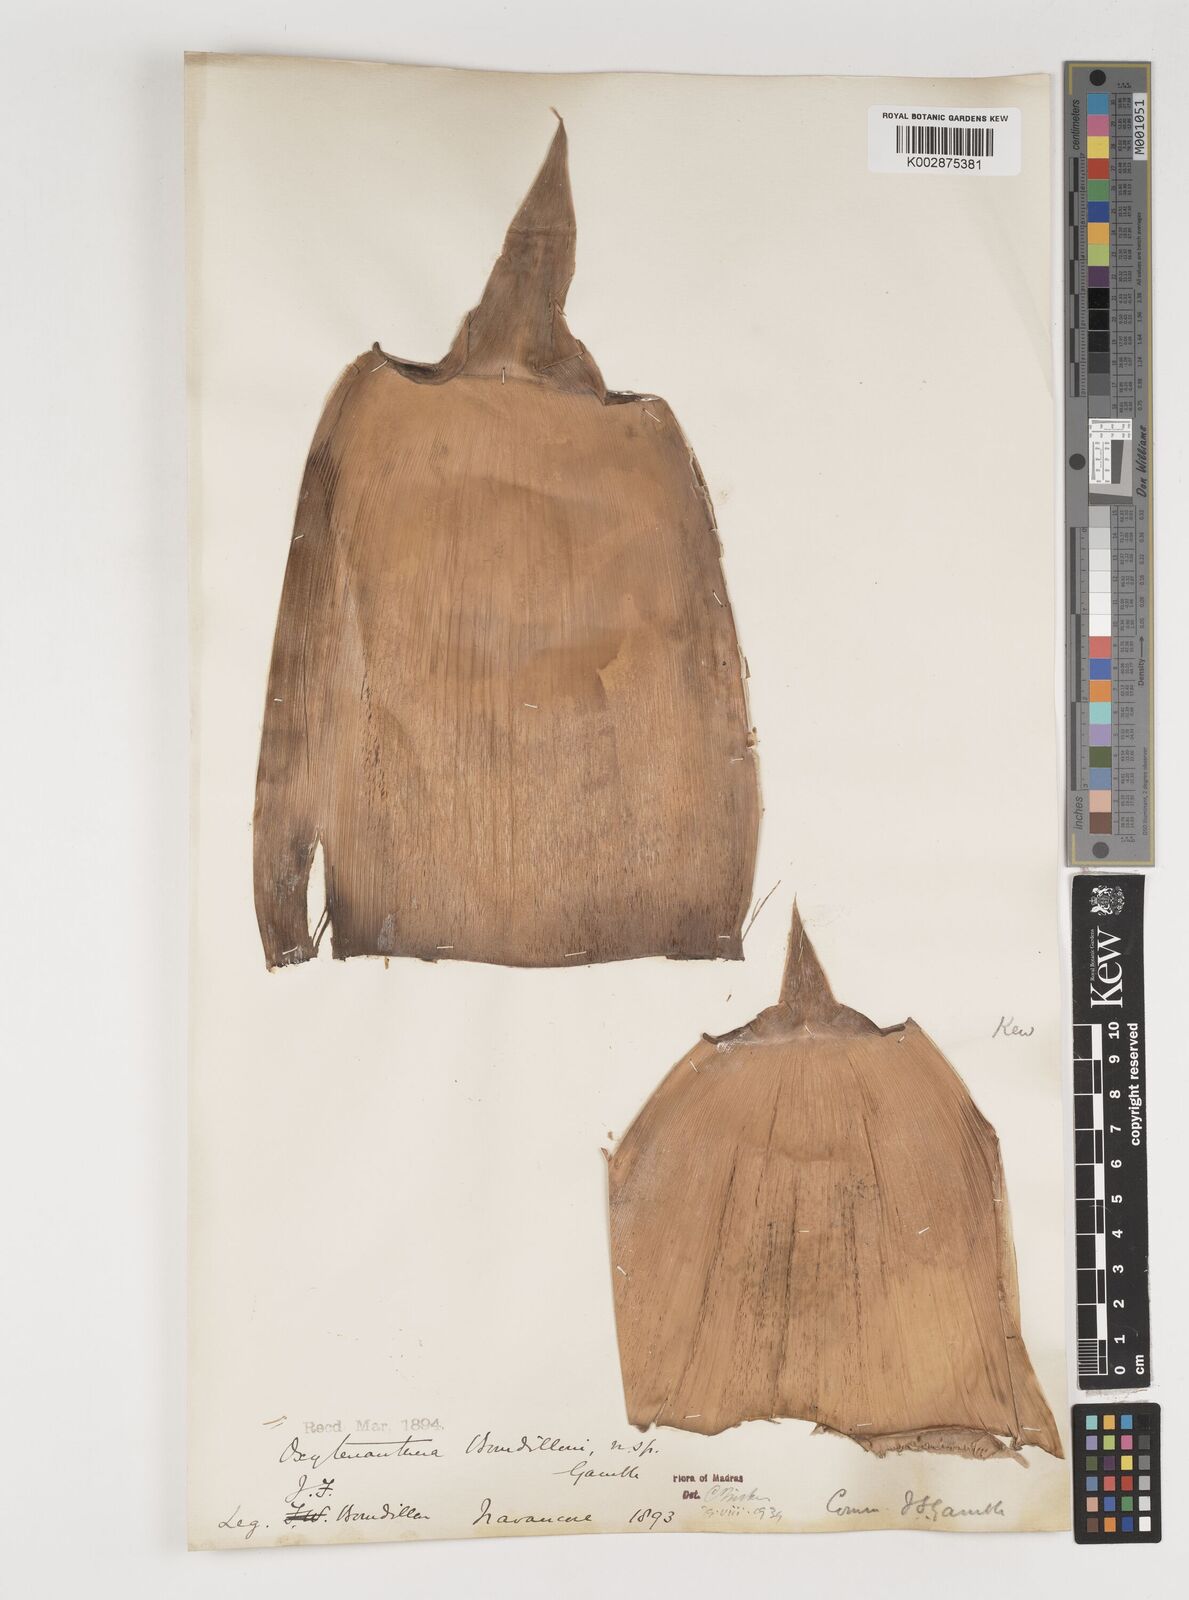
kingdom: Plantae
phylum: Tracheophyta
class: Liliopsida
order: Poales
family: Poaceae
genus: Dendrocalamus
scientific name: Dendrocalamus
